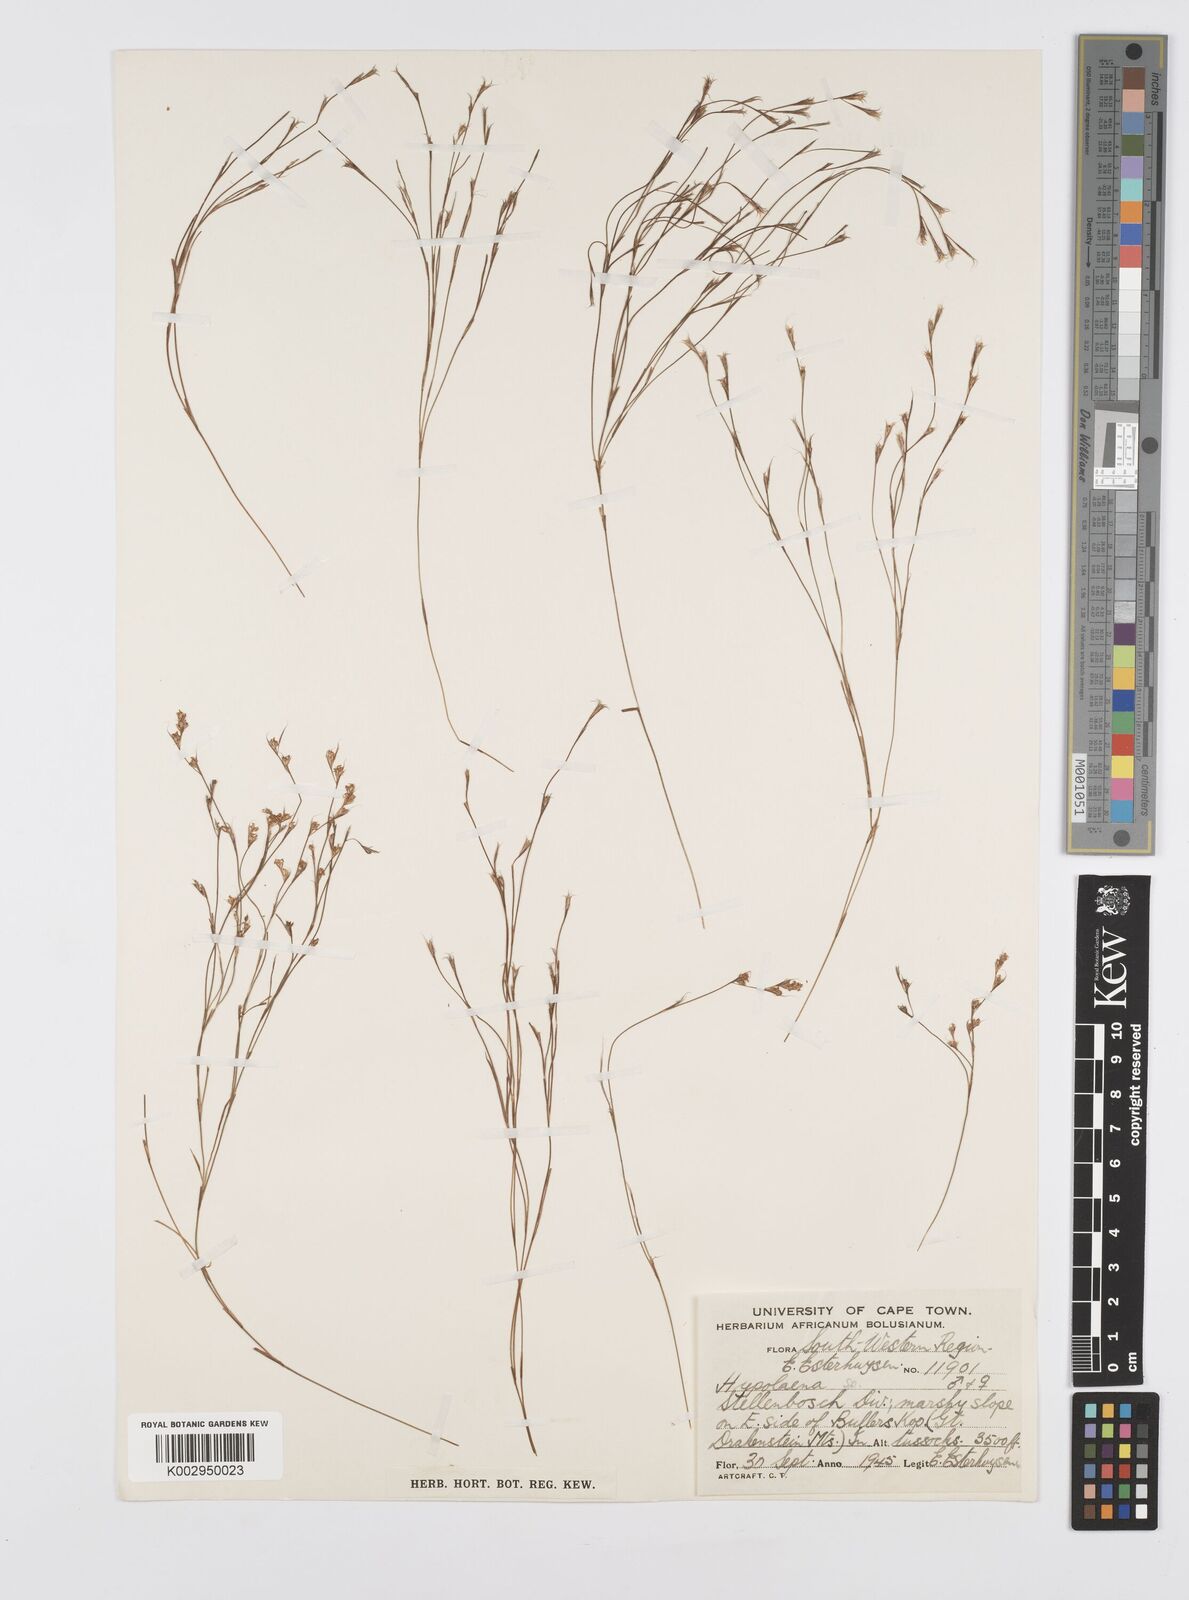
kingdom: Plantae
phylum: Tracheophyta
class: Liliopsida
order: Poales
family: Restionaceae
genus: Anthochortus
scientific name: Anthochortus
